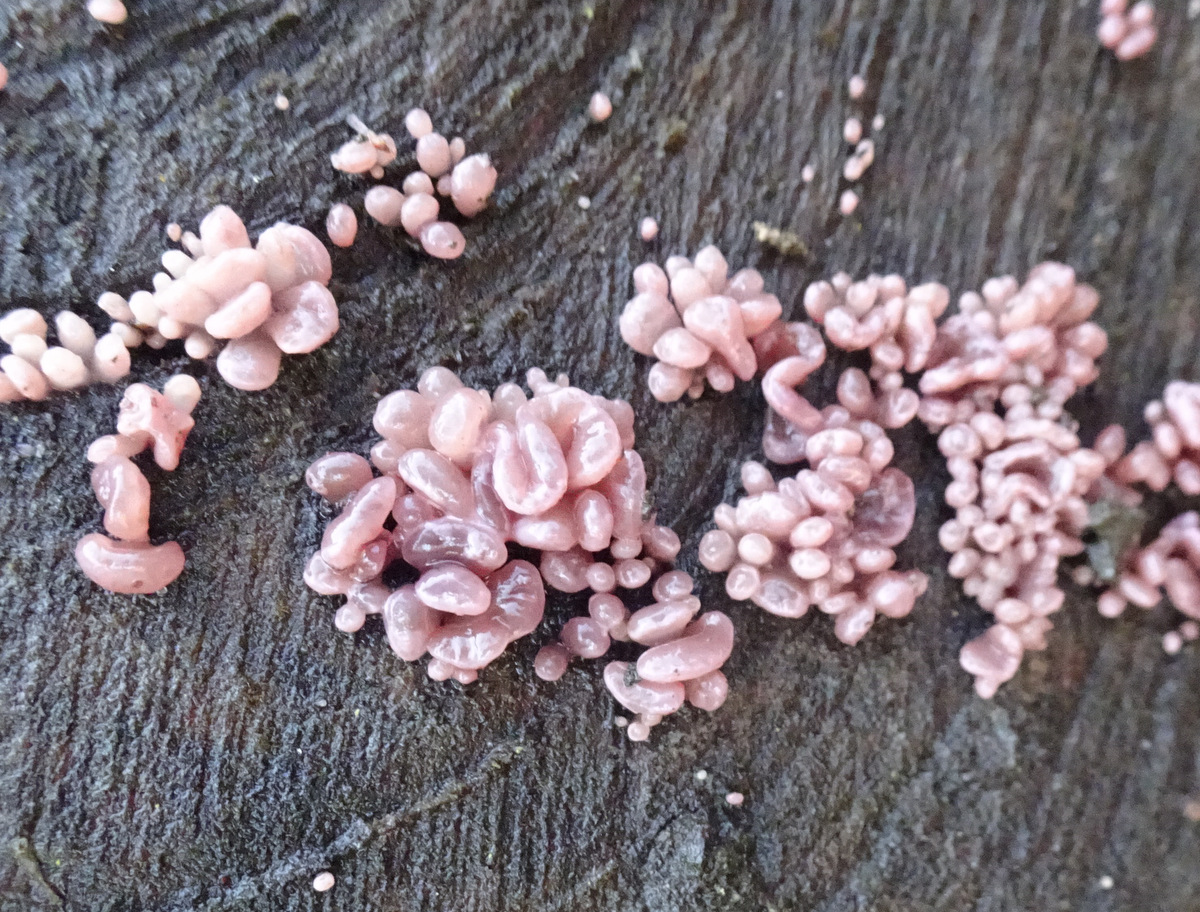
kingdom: Fungi
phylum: Ascomycota
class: Leotiomycetes
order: Helotiales
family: Gelatinodiscaceae
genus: Ascocoryne
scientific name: Ascocoryne sarcoides
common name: rødlilla sejskive
